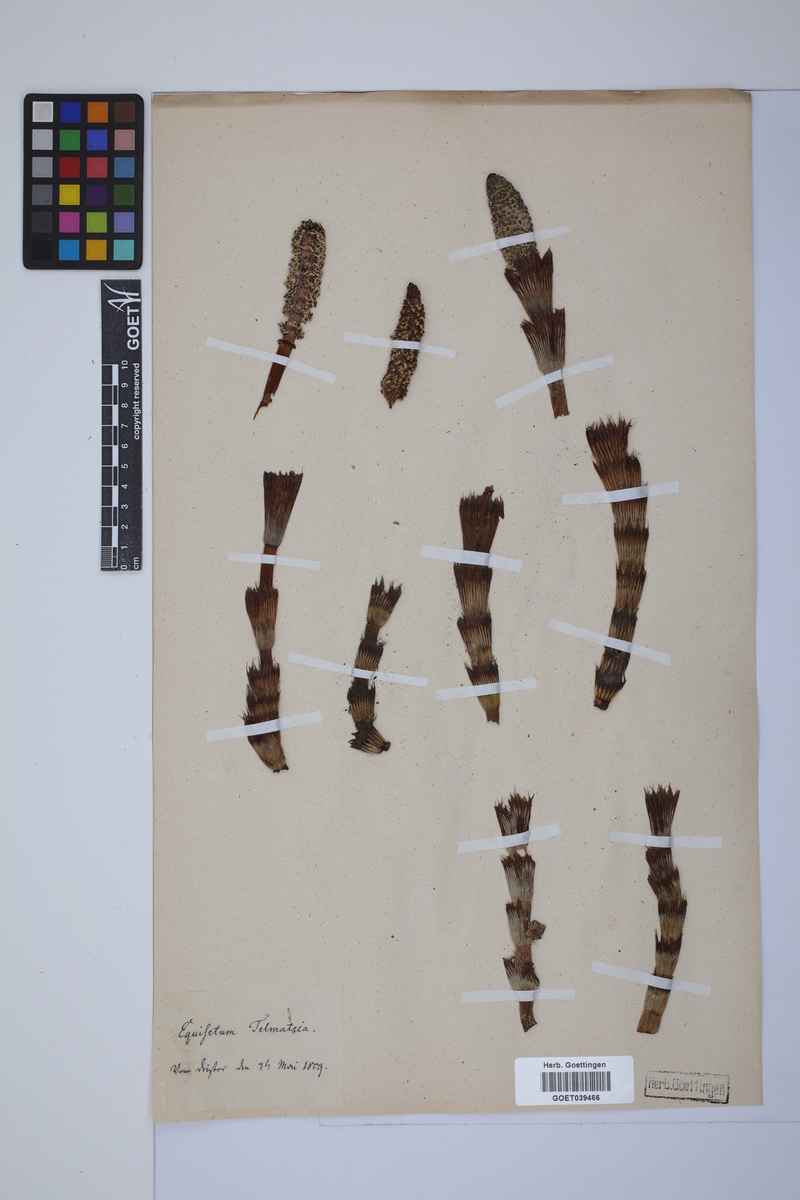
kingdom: Plantae
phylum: Tracheophyta
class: Polypodiopsida
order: Equisetales
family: Equisetaceae
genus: Equisetum
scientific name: Equisetum telmateia
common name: Great horsetail
